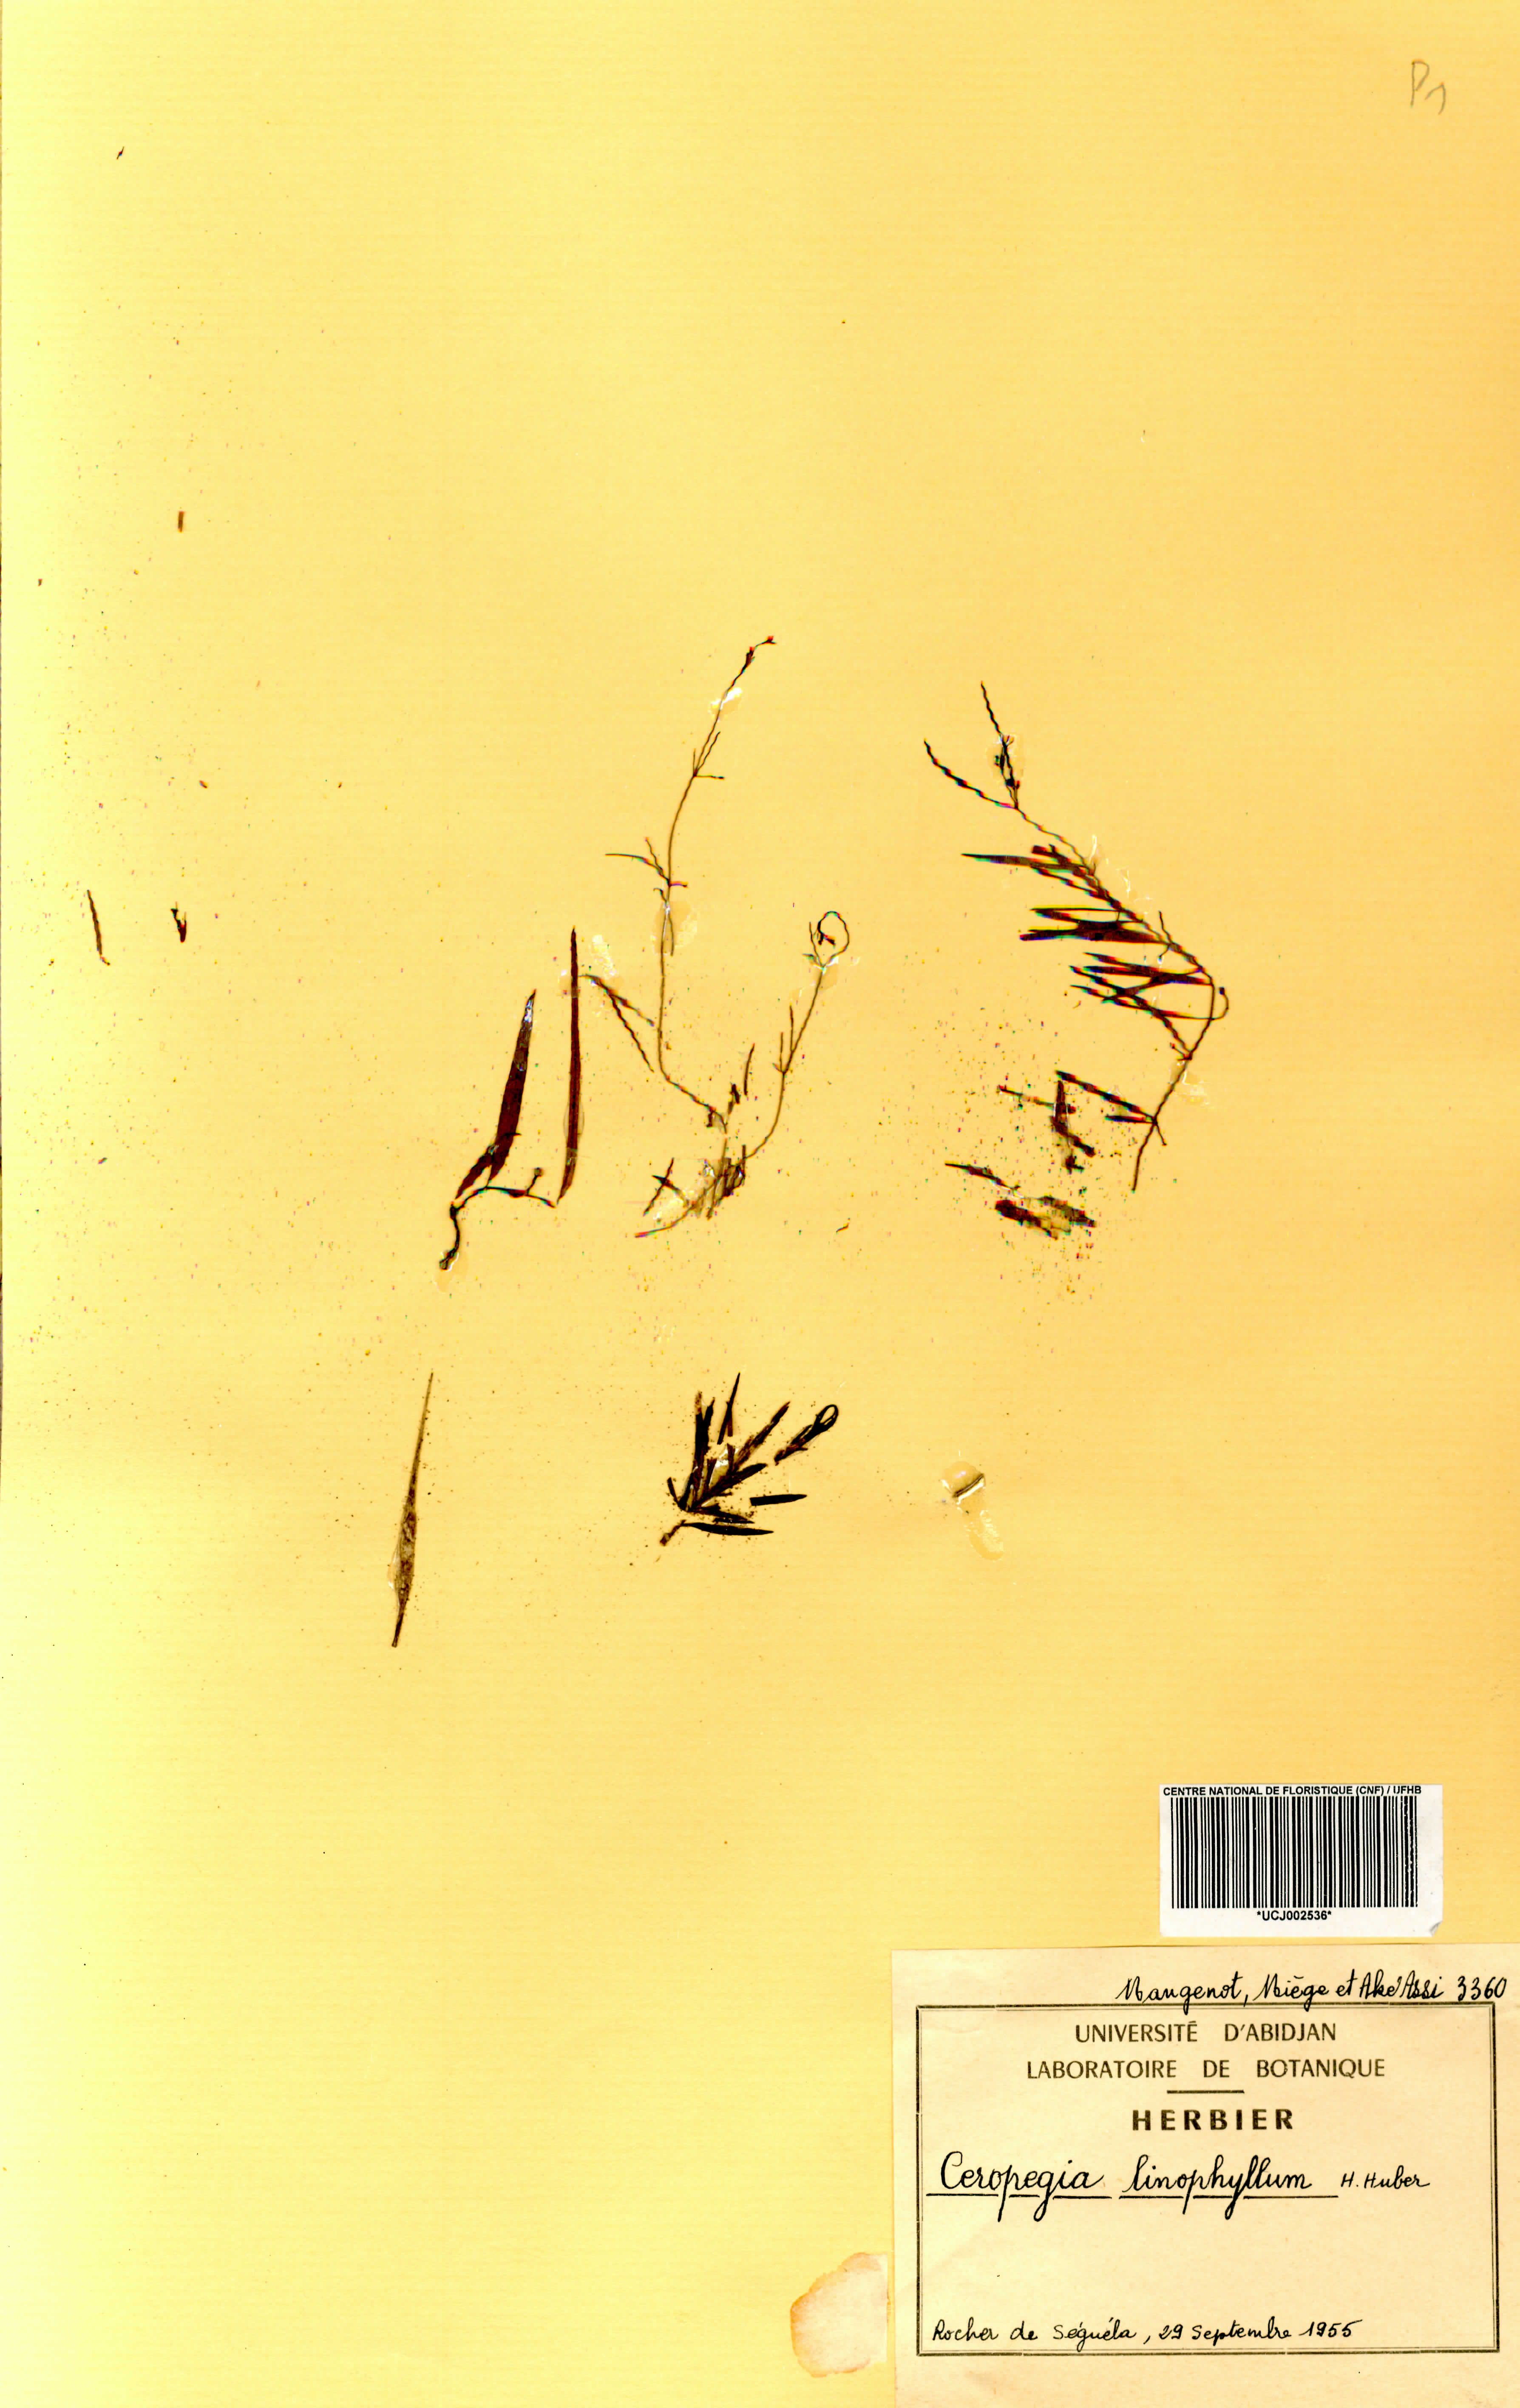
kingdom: Plantae
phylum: Tracheophyta
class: Magnoliopsida
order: Gentianales
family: Apocynaceae
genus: Ceropegia
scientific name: Ceropegia linophylla
